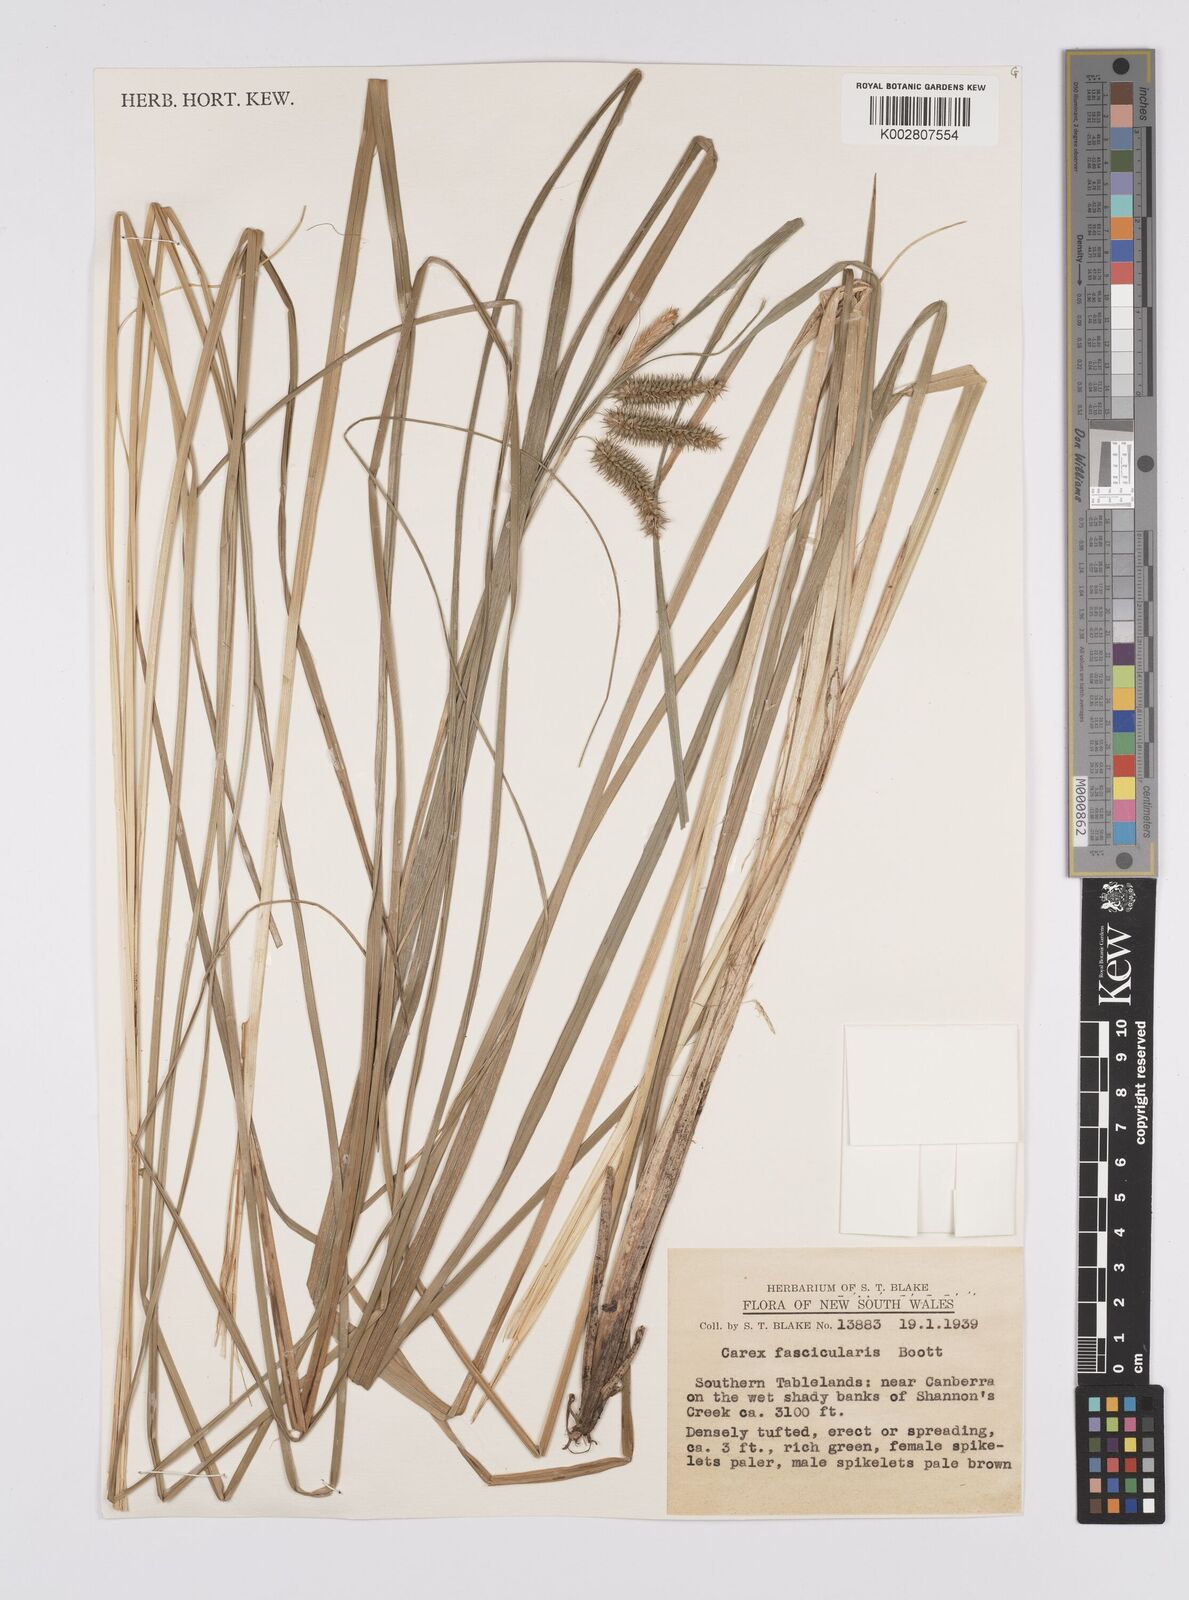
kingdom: Plantae
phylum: Tracheophyta
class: Liliopsida
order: Poales
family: Cyperaceae
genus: Carex
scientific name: Carex fascicularis
